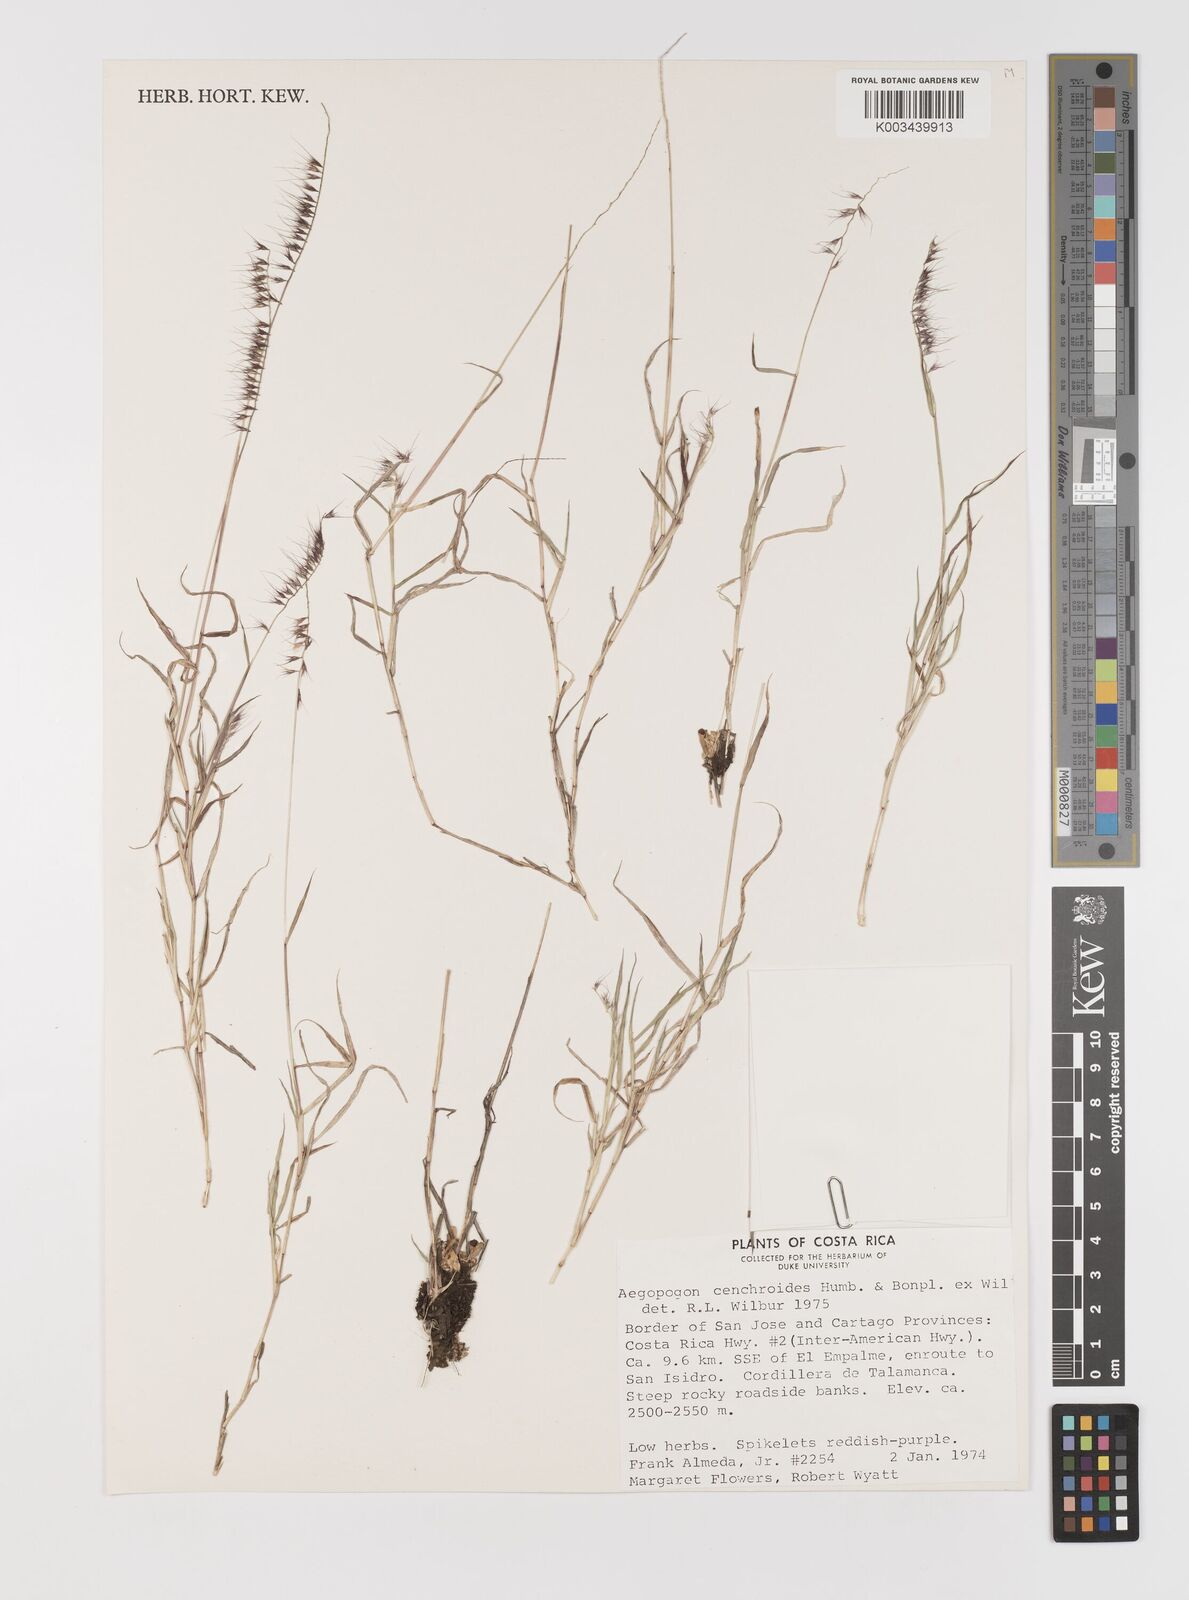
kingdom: Plantae
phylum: Tracheophyta
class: Liliopsida
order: Poales
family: Poaceae
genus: Muhlenbergia
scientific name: Muhlenbergia cenchroides
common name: Relaxgrass
